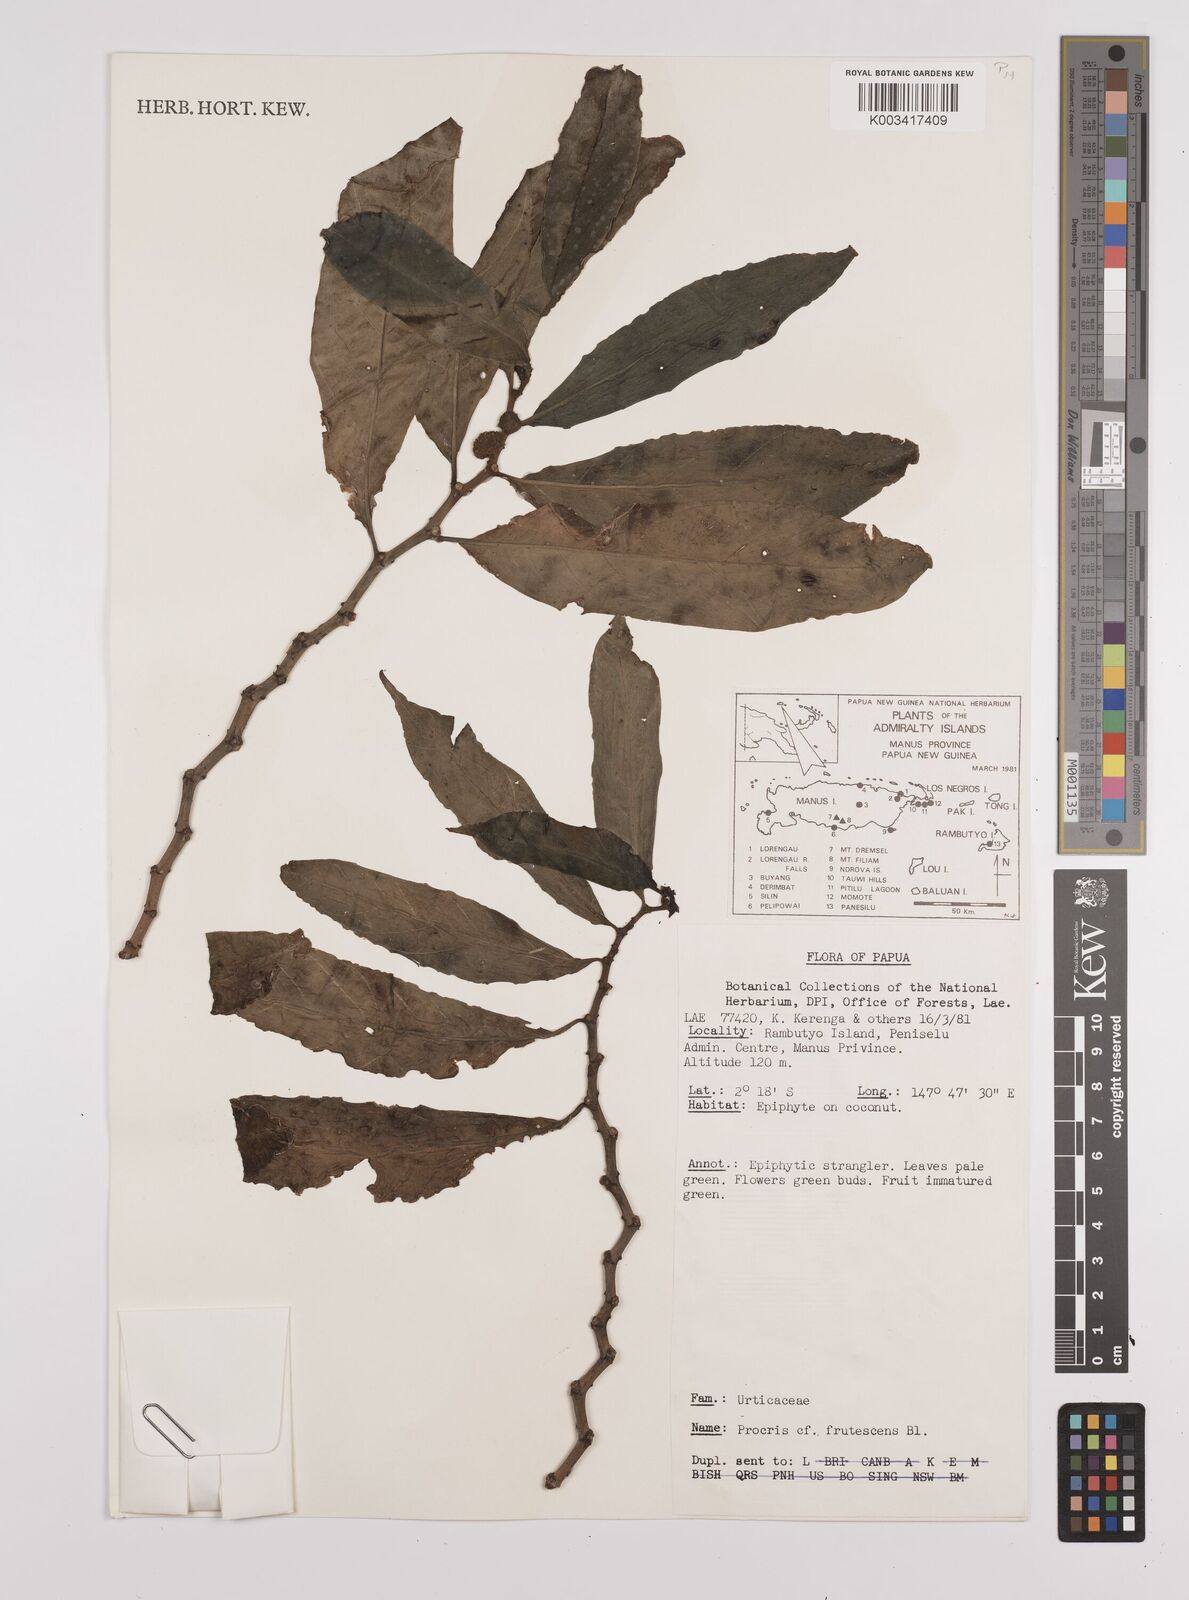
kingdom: Plantae
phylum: Tracheophyta
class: Magnoliopsida
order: Rosales
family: Urticaceae
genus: Procris
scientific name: Procris frutescens
